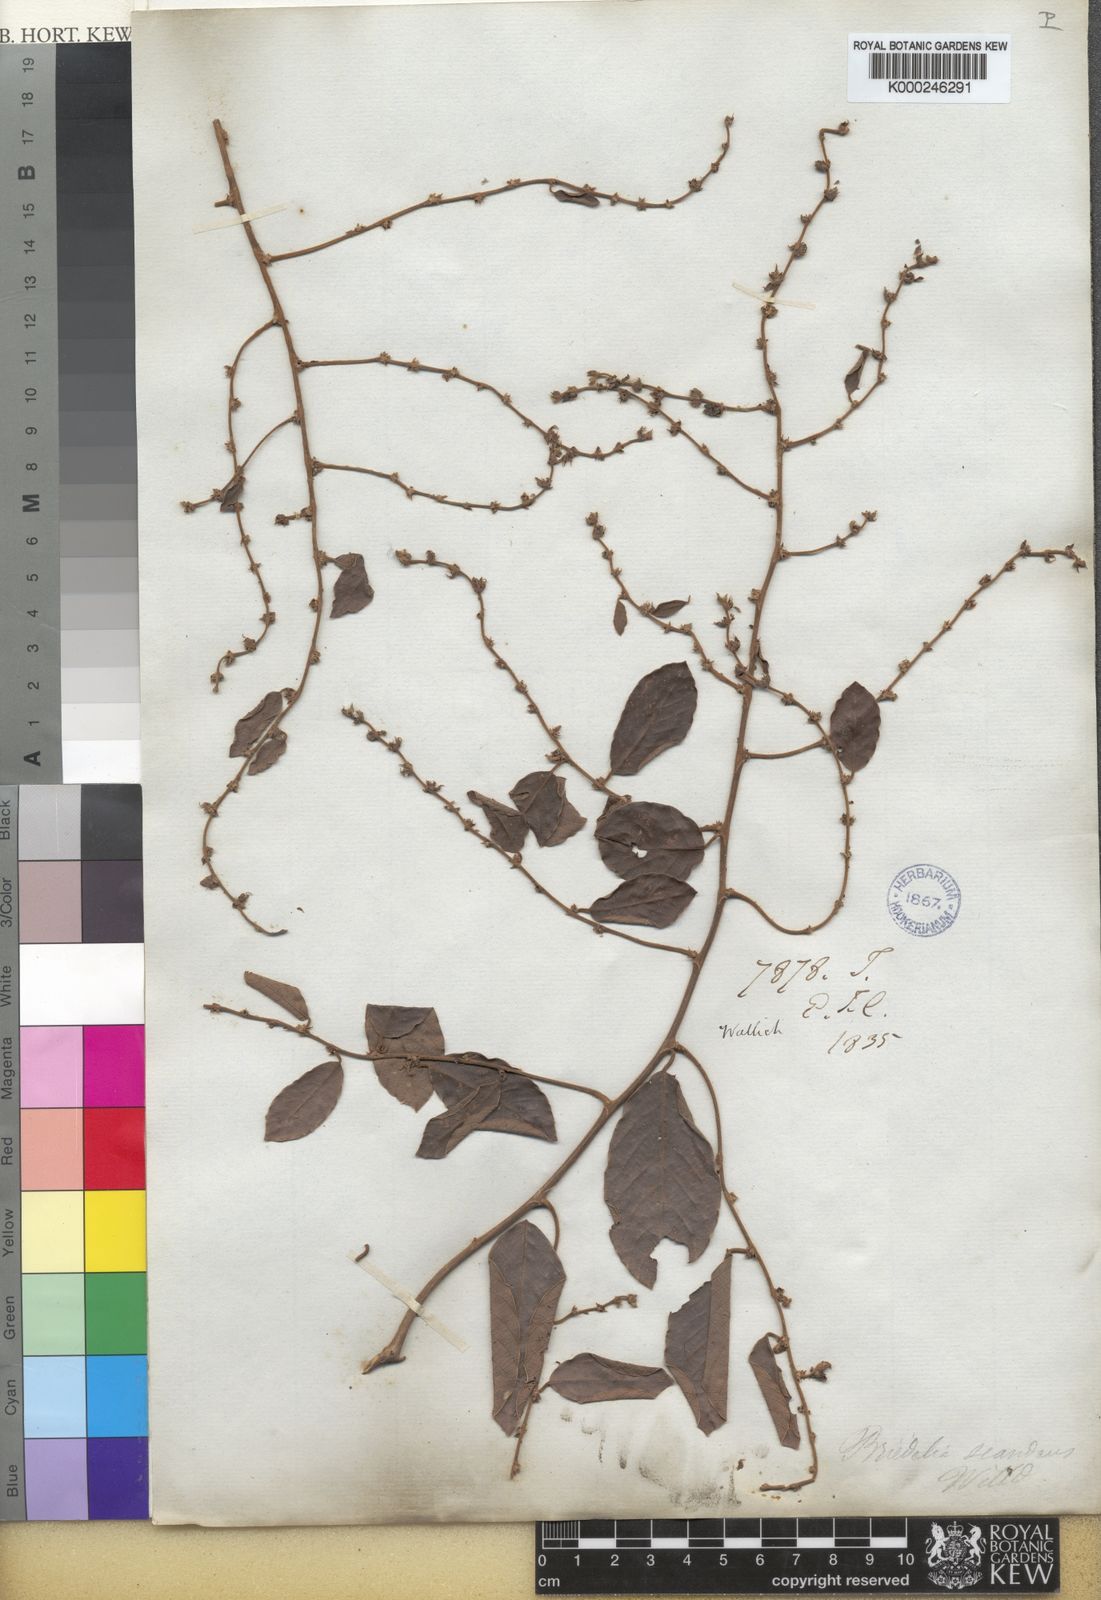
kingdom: Plantae
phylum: Tracheophyta
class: Magnoliopsida
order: Malpighiales
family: Phyllanthaceae
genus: Bridelia
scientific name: Bridelia stipularis
